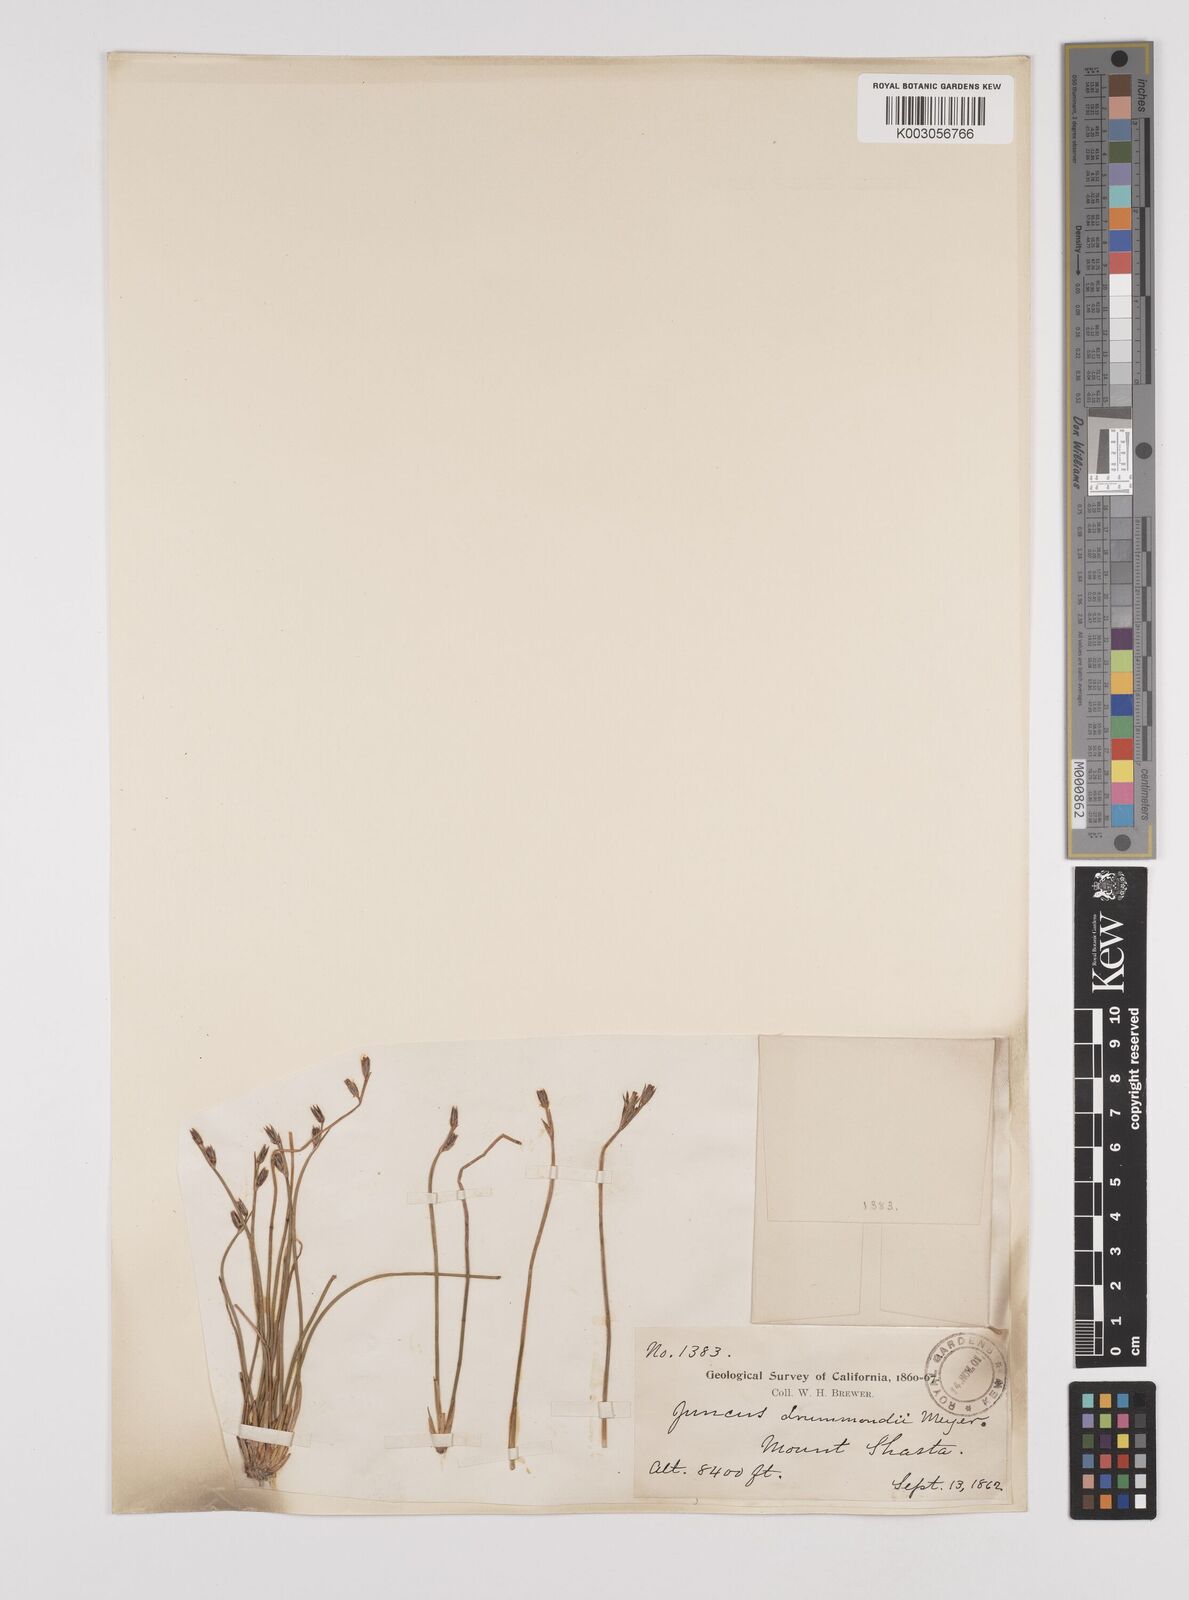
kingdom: Plantae
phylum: Tracheophyta
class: Liliopsida
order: Poales
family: Juncaceae
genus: Juncus
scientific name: Juncus drummondii
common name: Drummond's rush
